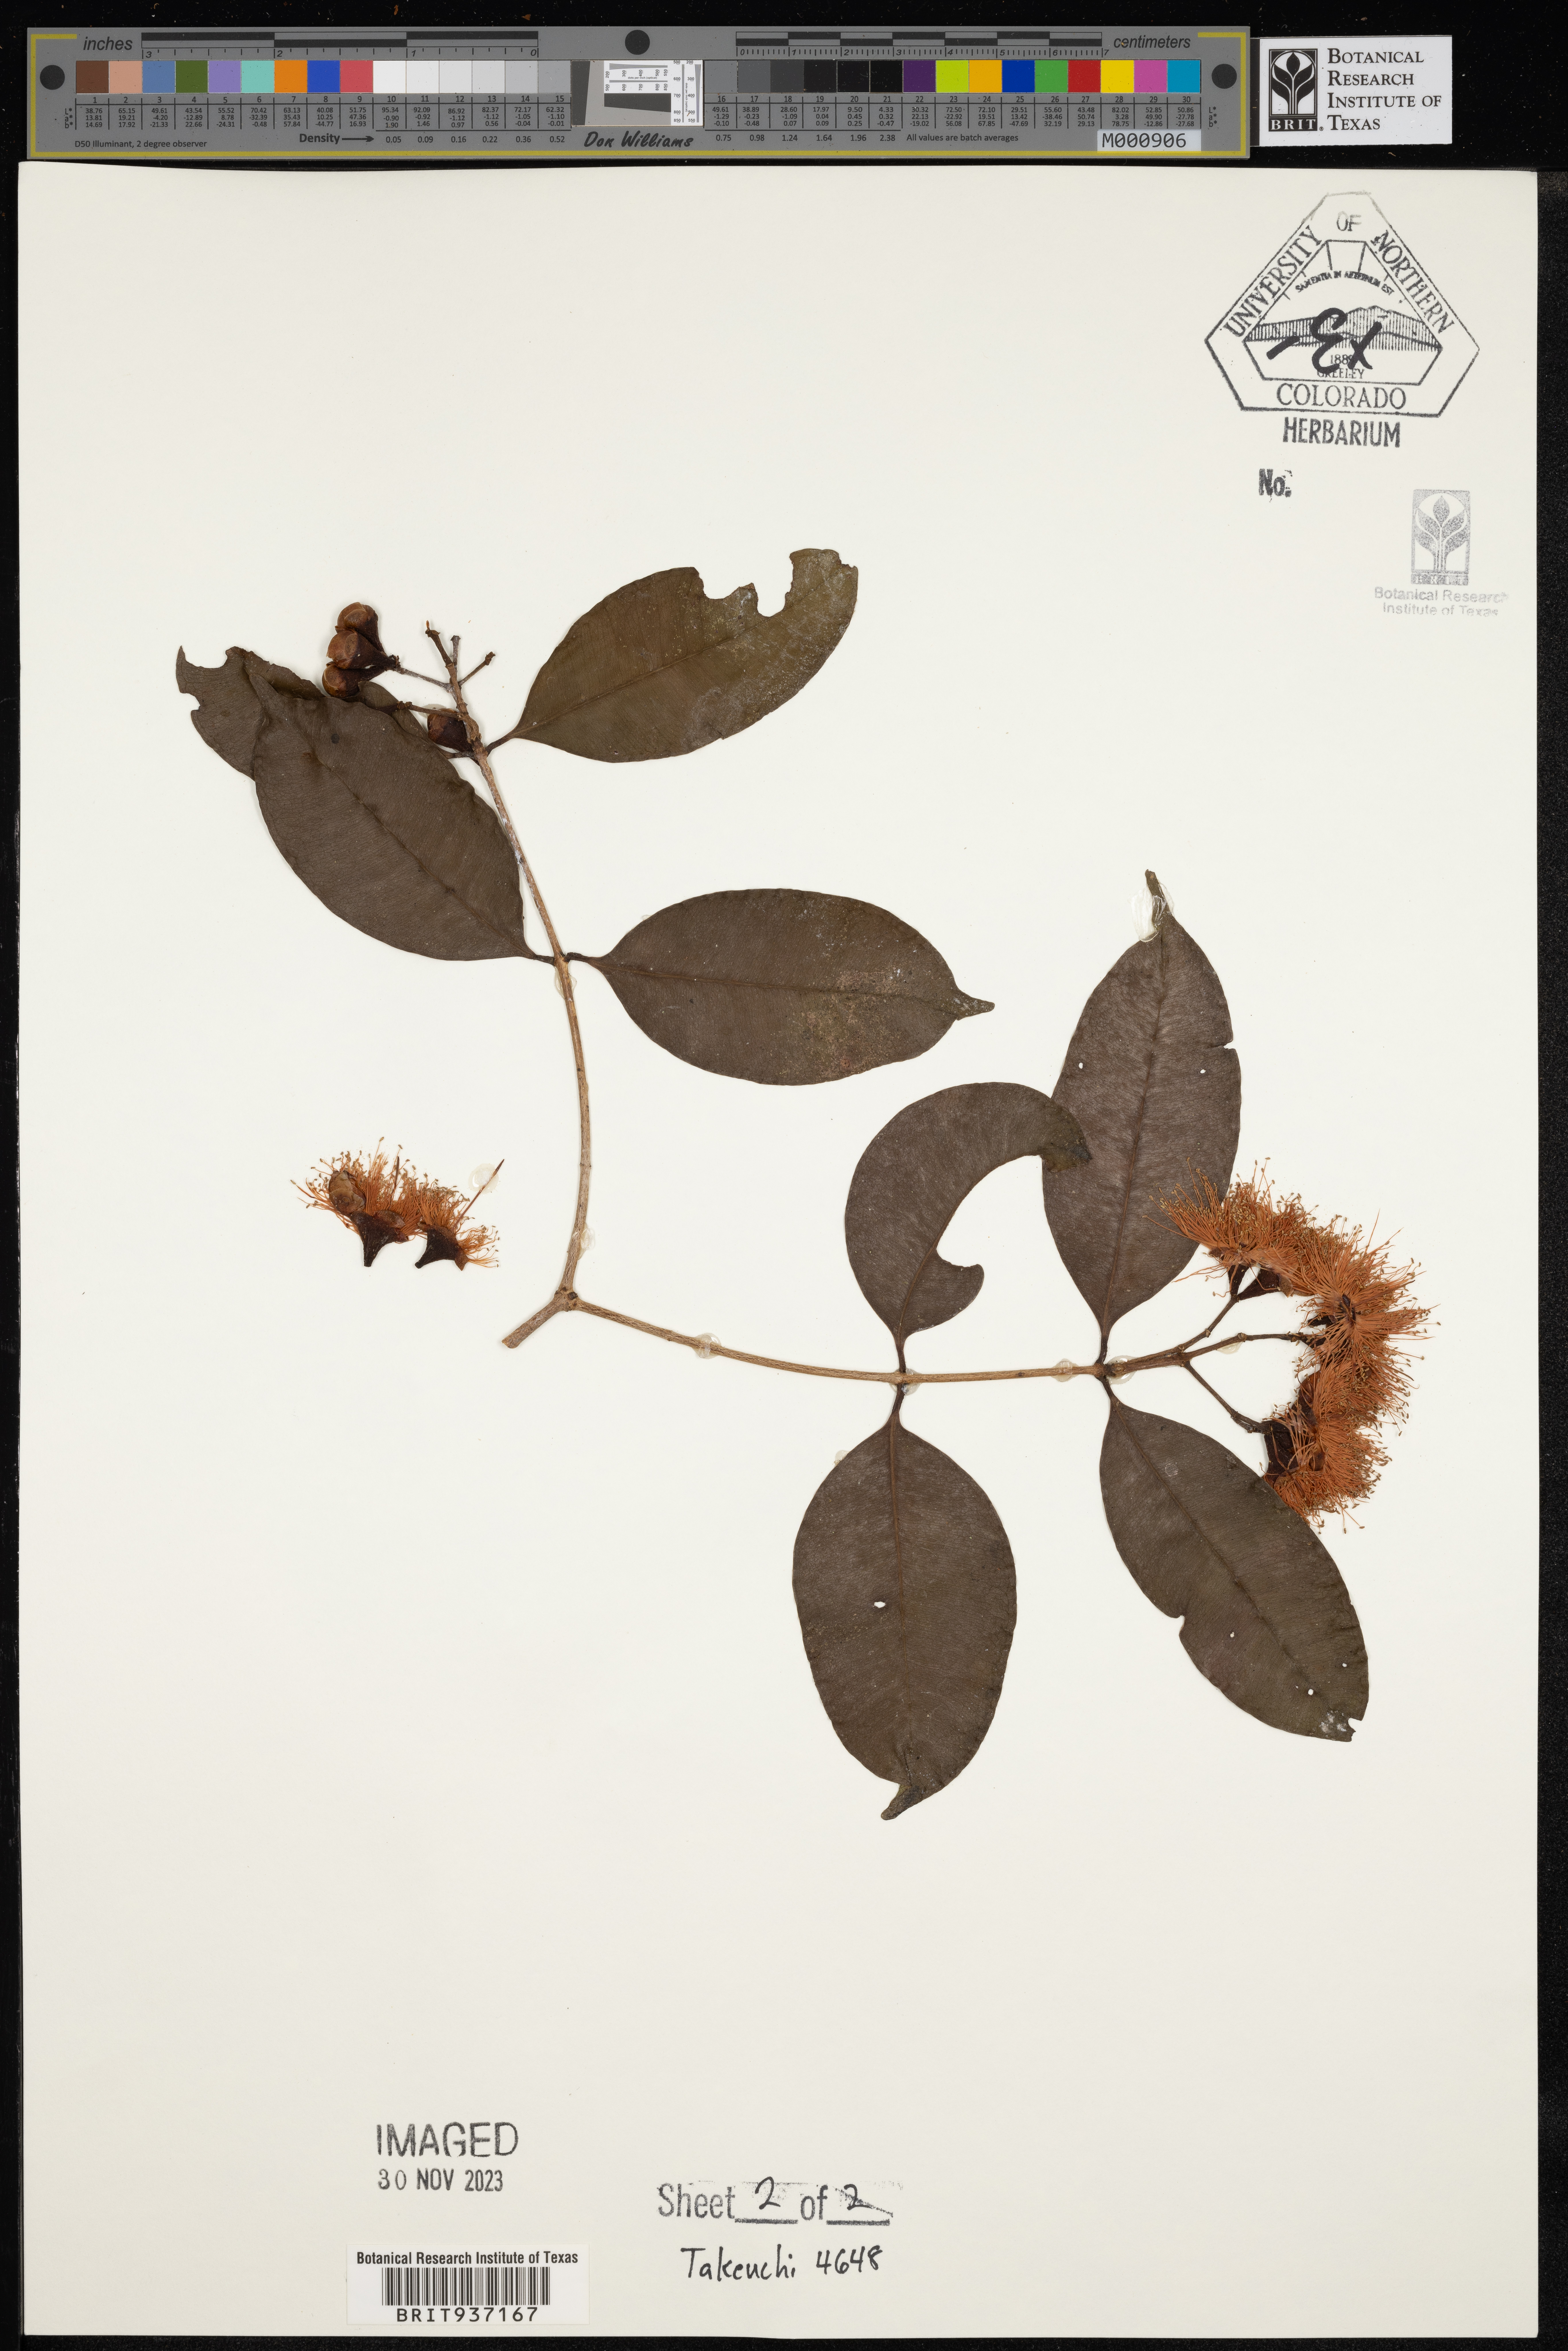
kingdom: Plantae
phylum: Tracheophyta
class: Magnoliopsida
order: Myrtales
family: Myrtaceae
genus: Syzygium
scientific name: Syzygium
